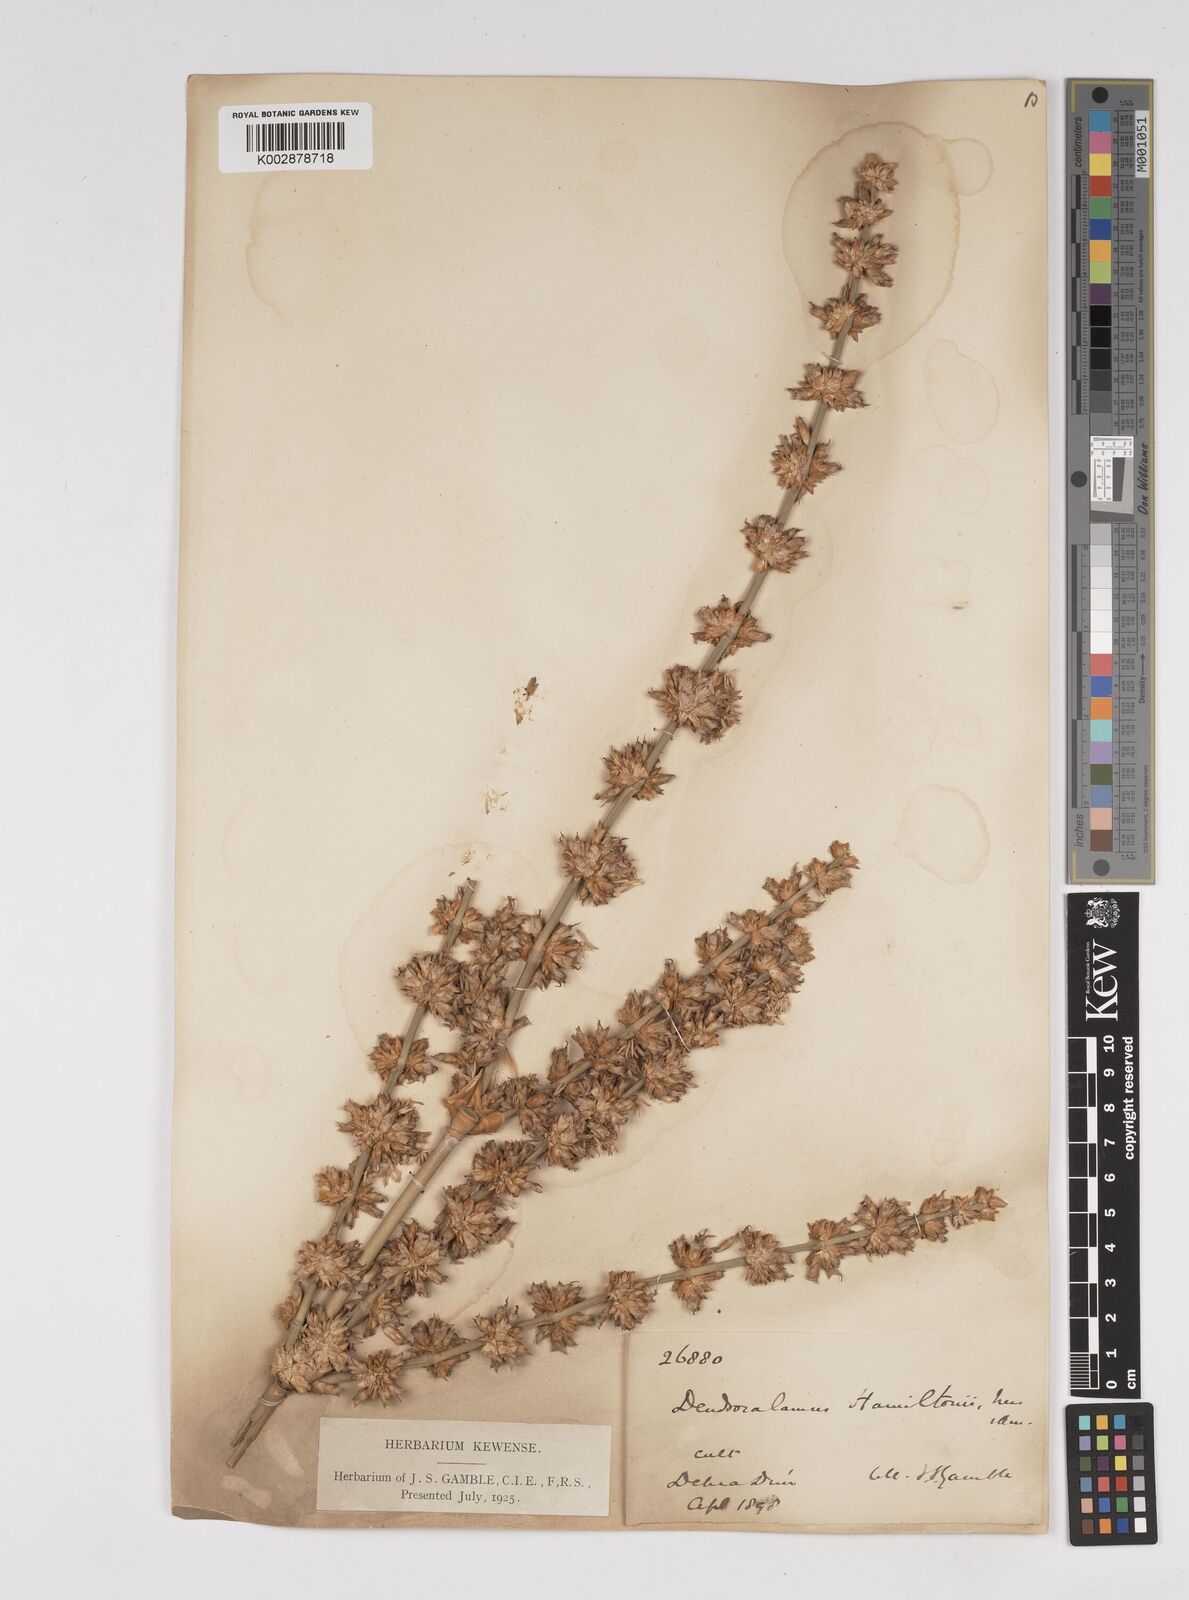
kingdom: Plantae
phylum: Tracheophyta
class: Liliopsida
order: Poales
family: Poaceae
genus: Dendrocalamus
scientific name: Dendrocalamus hamiltonii
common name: Tama bamboo
